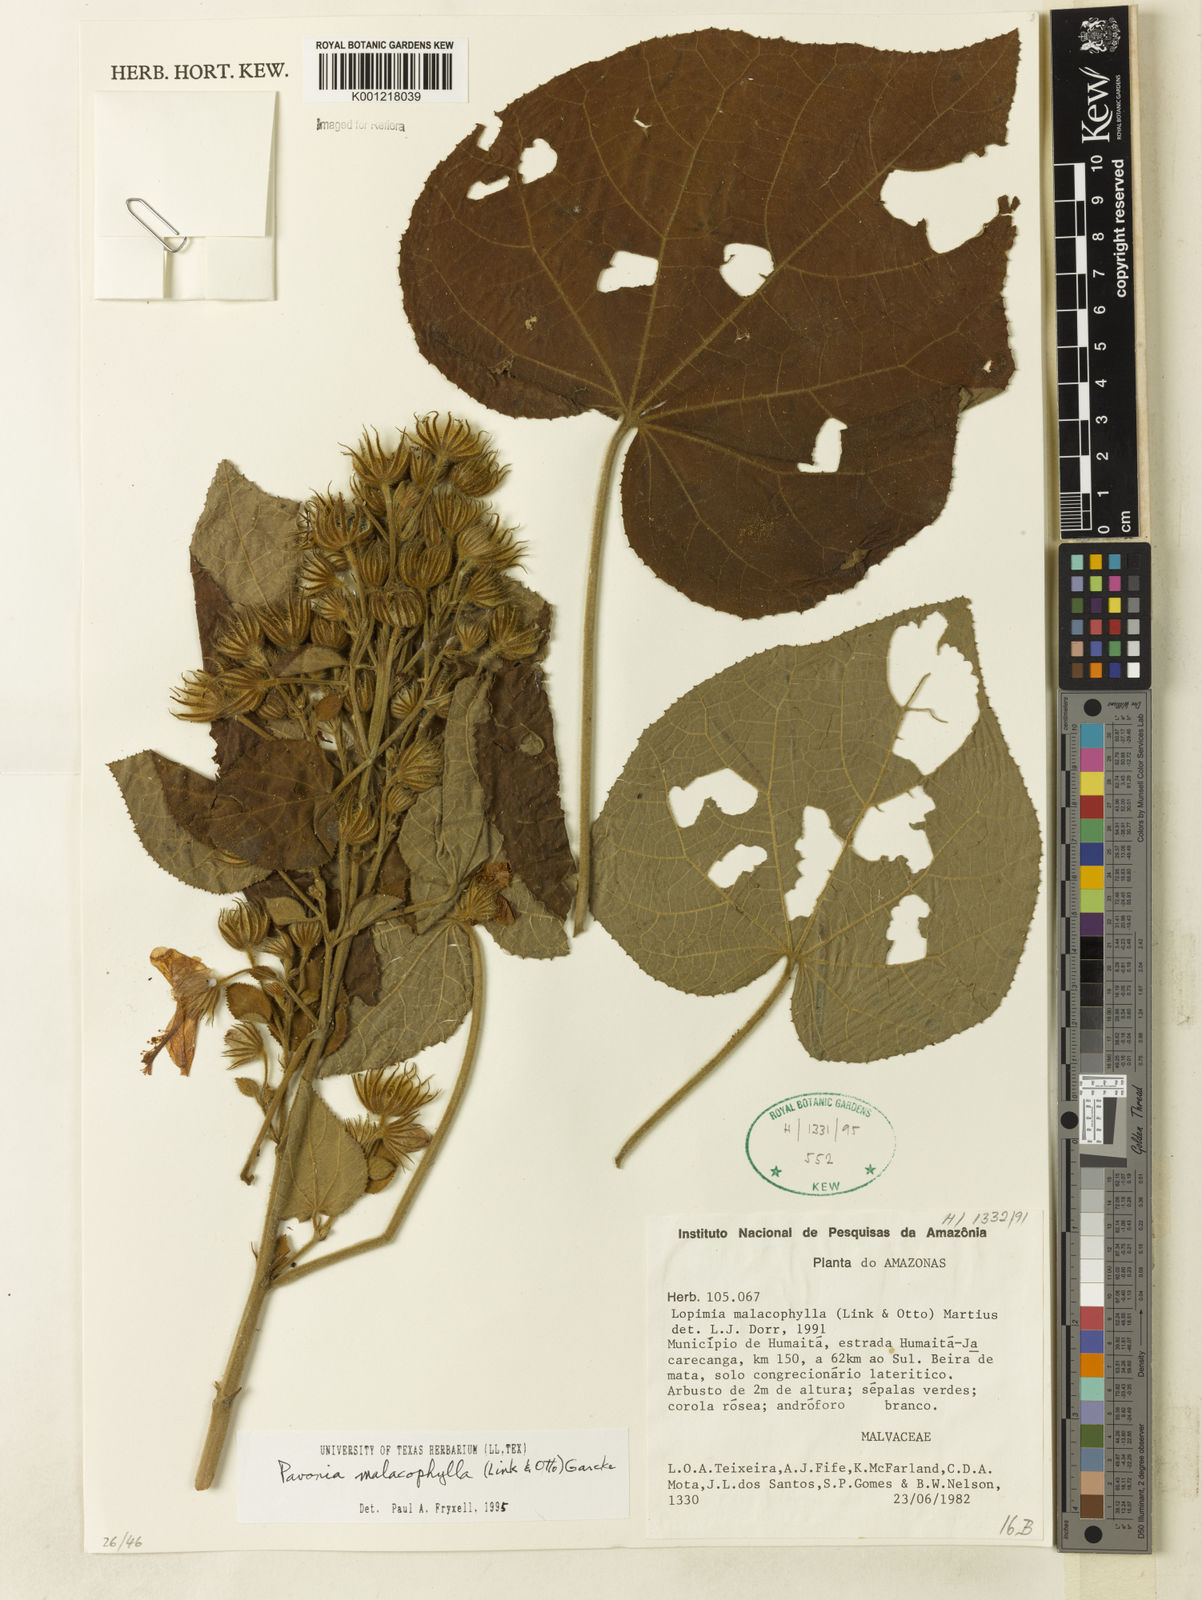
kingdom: Plantae
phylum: Tracheophyta
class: Magnoliopsida
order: Malvales
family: Malvaceae
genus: Pavonia
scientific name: Pavonia malacophylla
